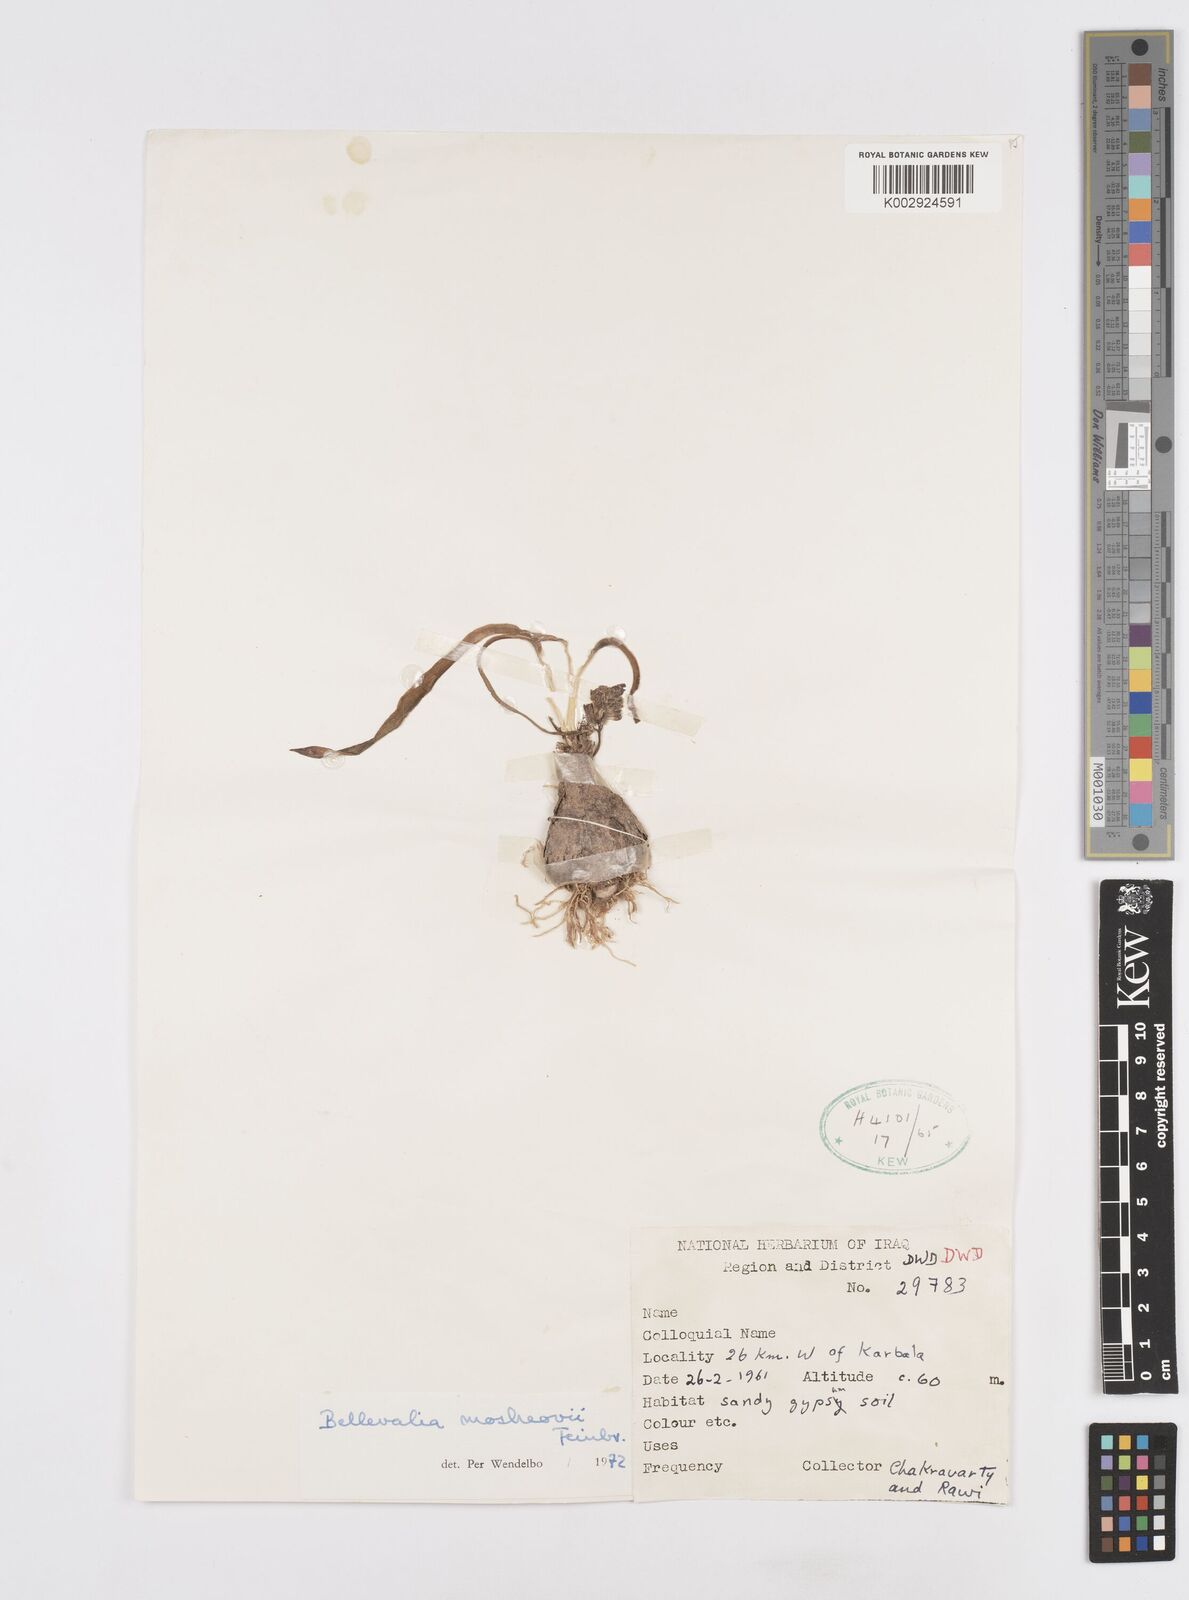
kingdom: Plantae
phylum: Tracheophyta
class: Liliopsida
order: Asparagales
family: Asparagaceae
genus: Bellevalia
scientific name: Bellevalia mosheovii
